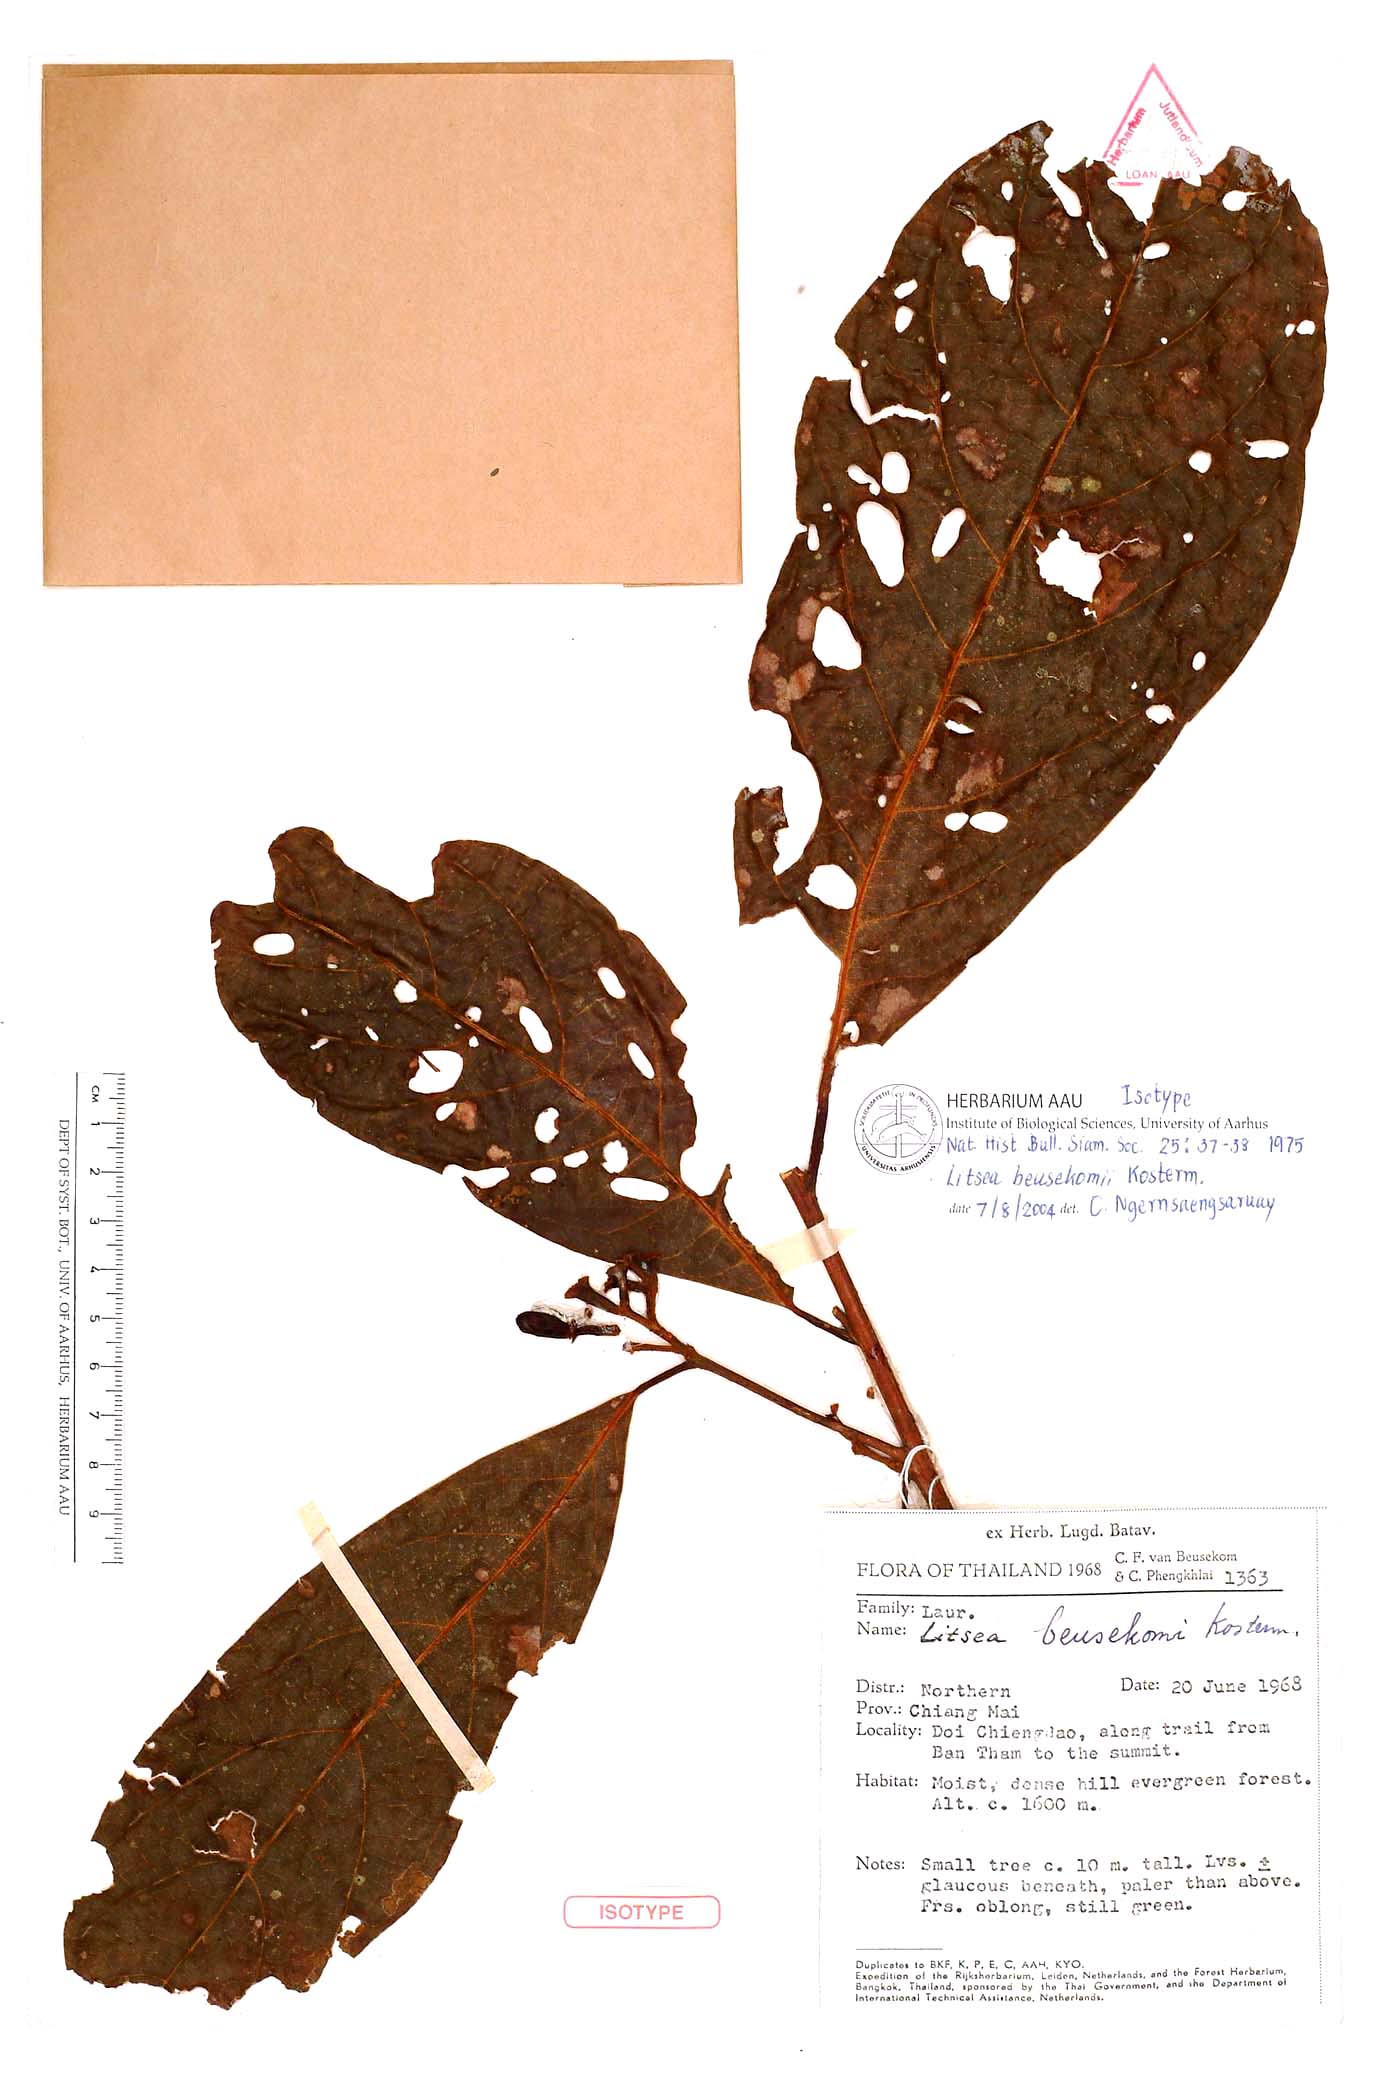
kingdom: Plantae
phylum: Tracheophyta
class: Magnoliopsida
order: Laurales
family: Lauraceae
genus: Litsea
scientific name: Litsea beusekomii
